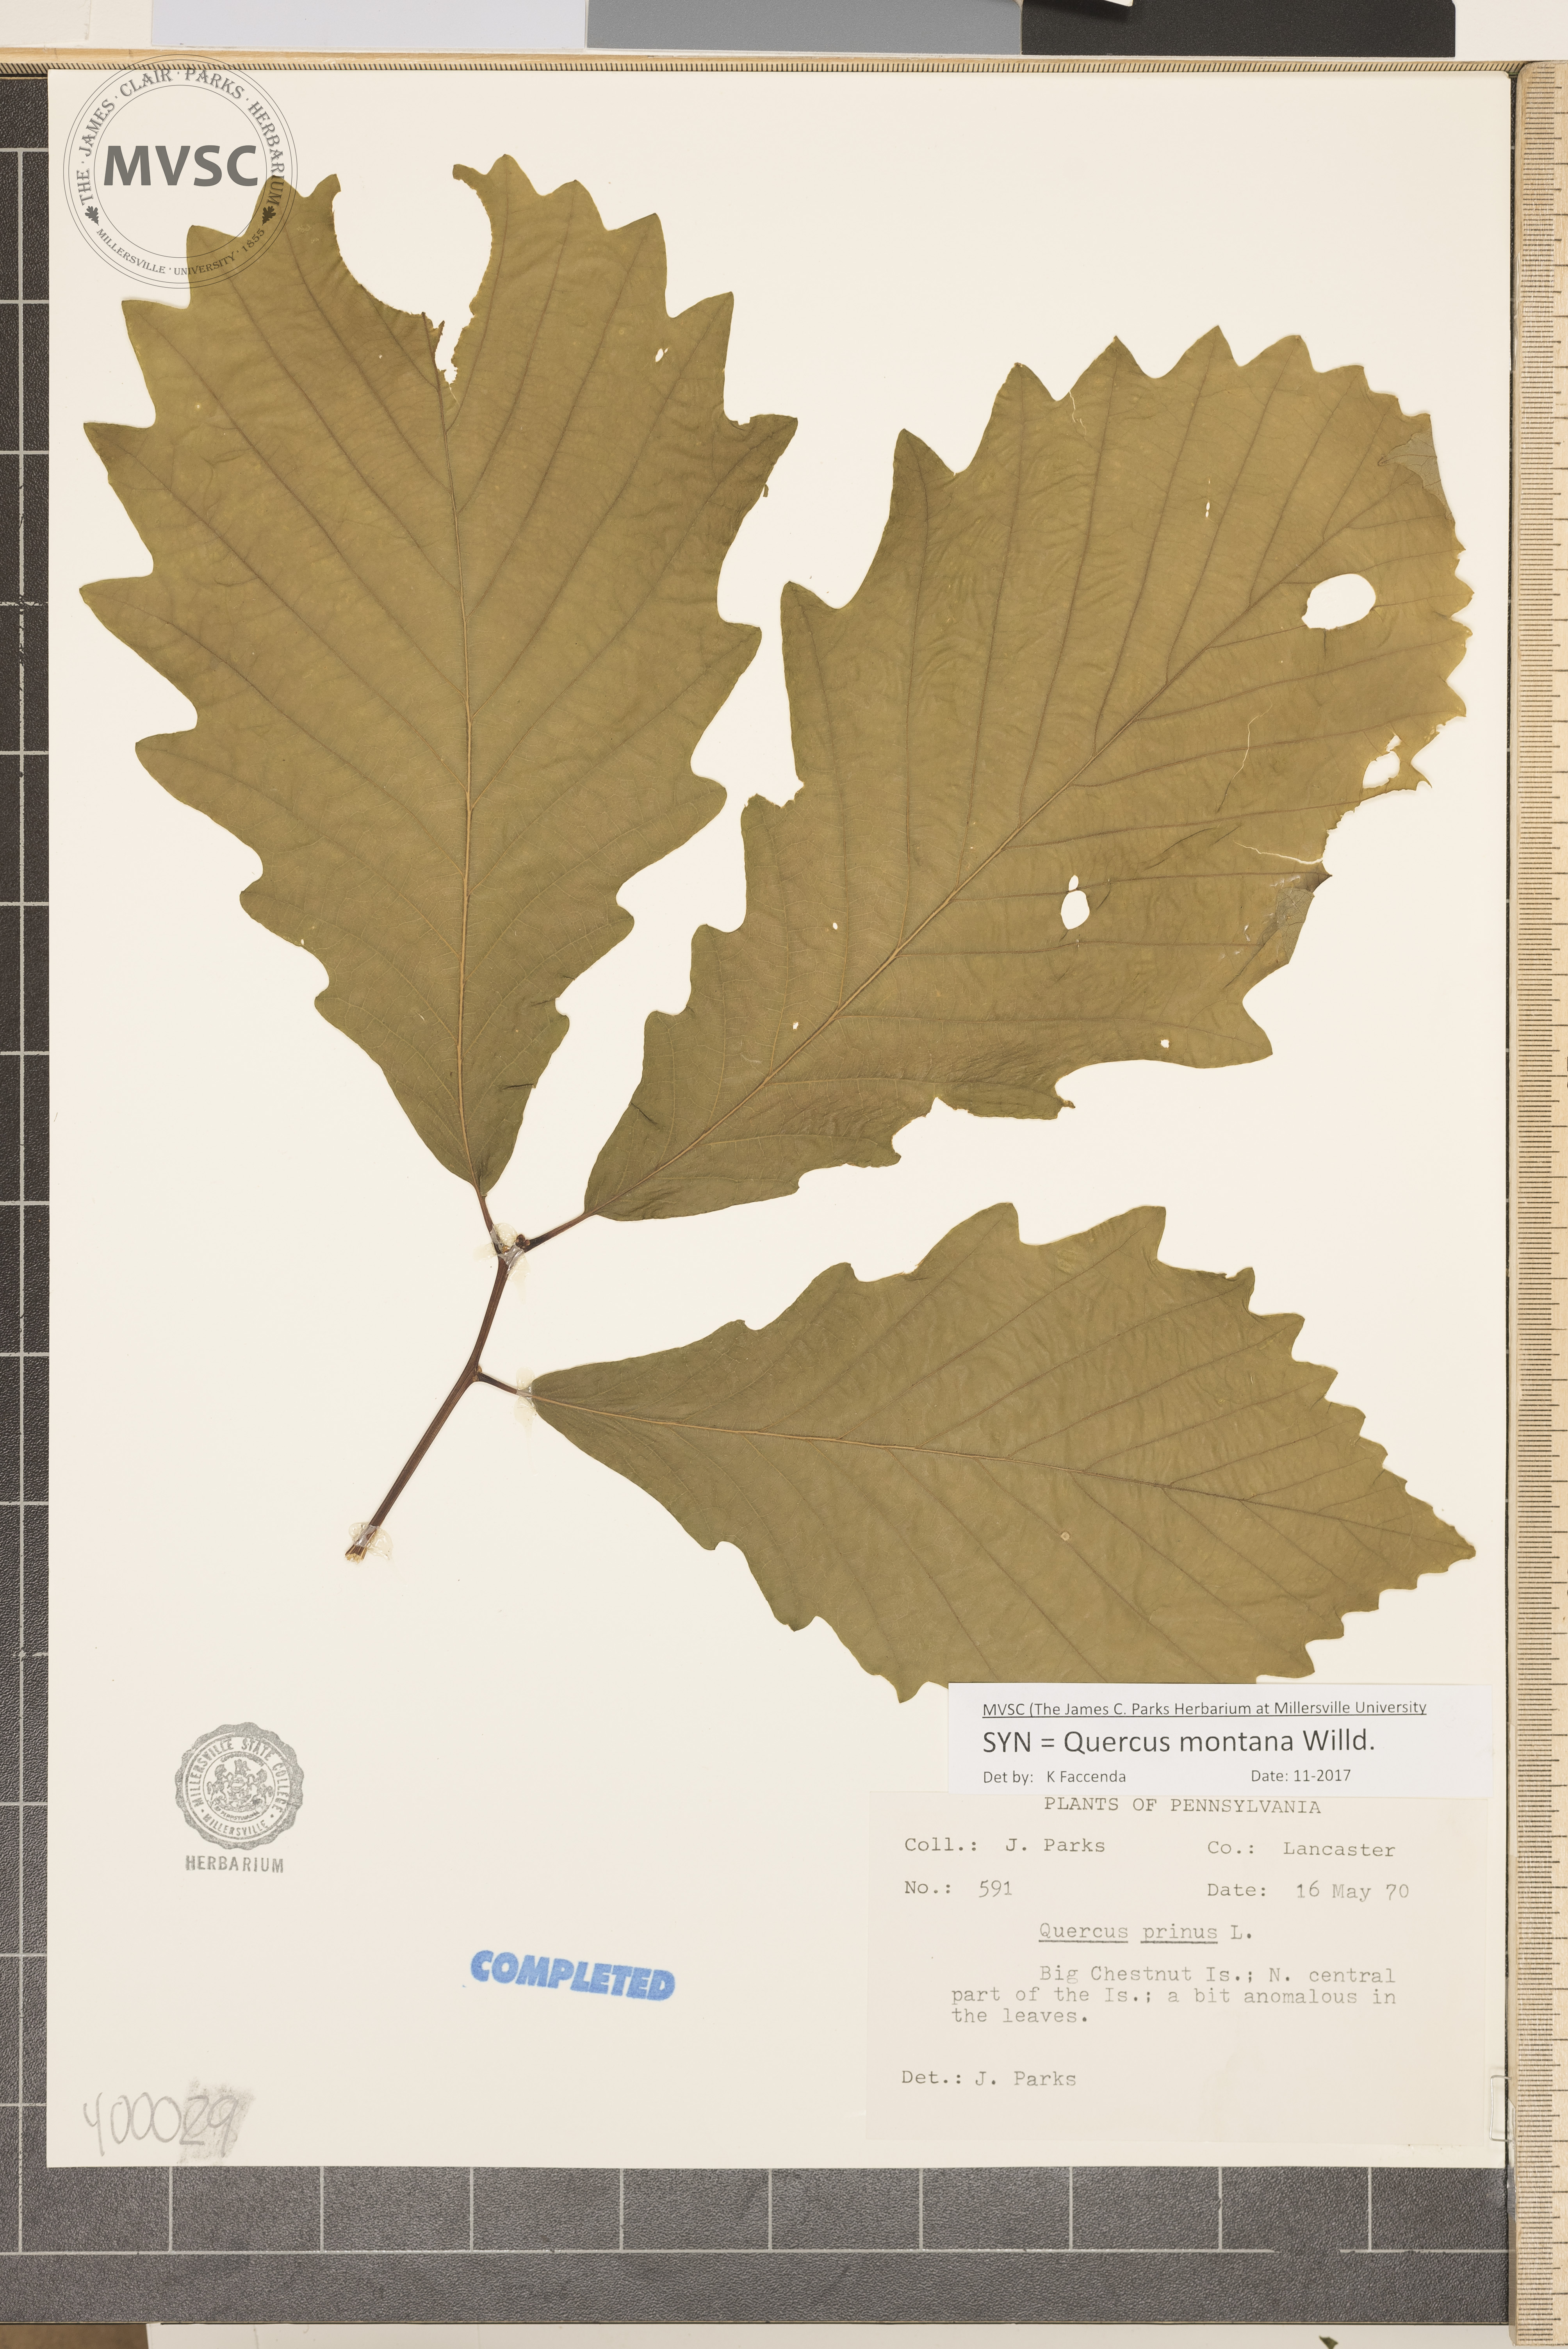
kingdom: Plantae
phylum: Tracheophyta
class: Magnoliopsida
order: Fagales
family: Fagaceae
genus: Quercus
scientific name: Quercus montana
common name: Chestnut oak
